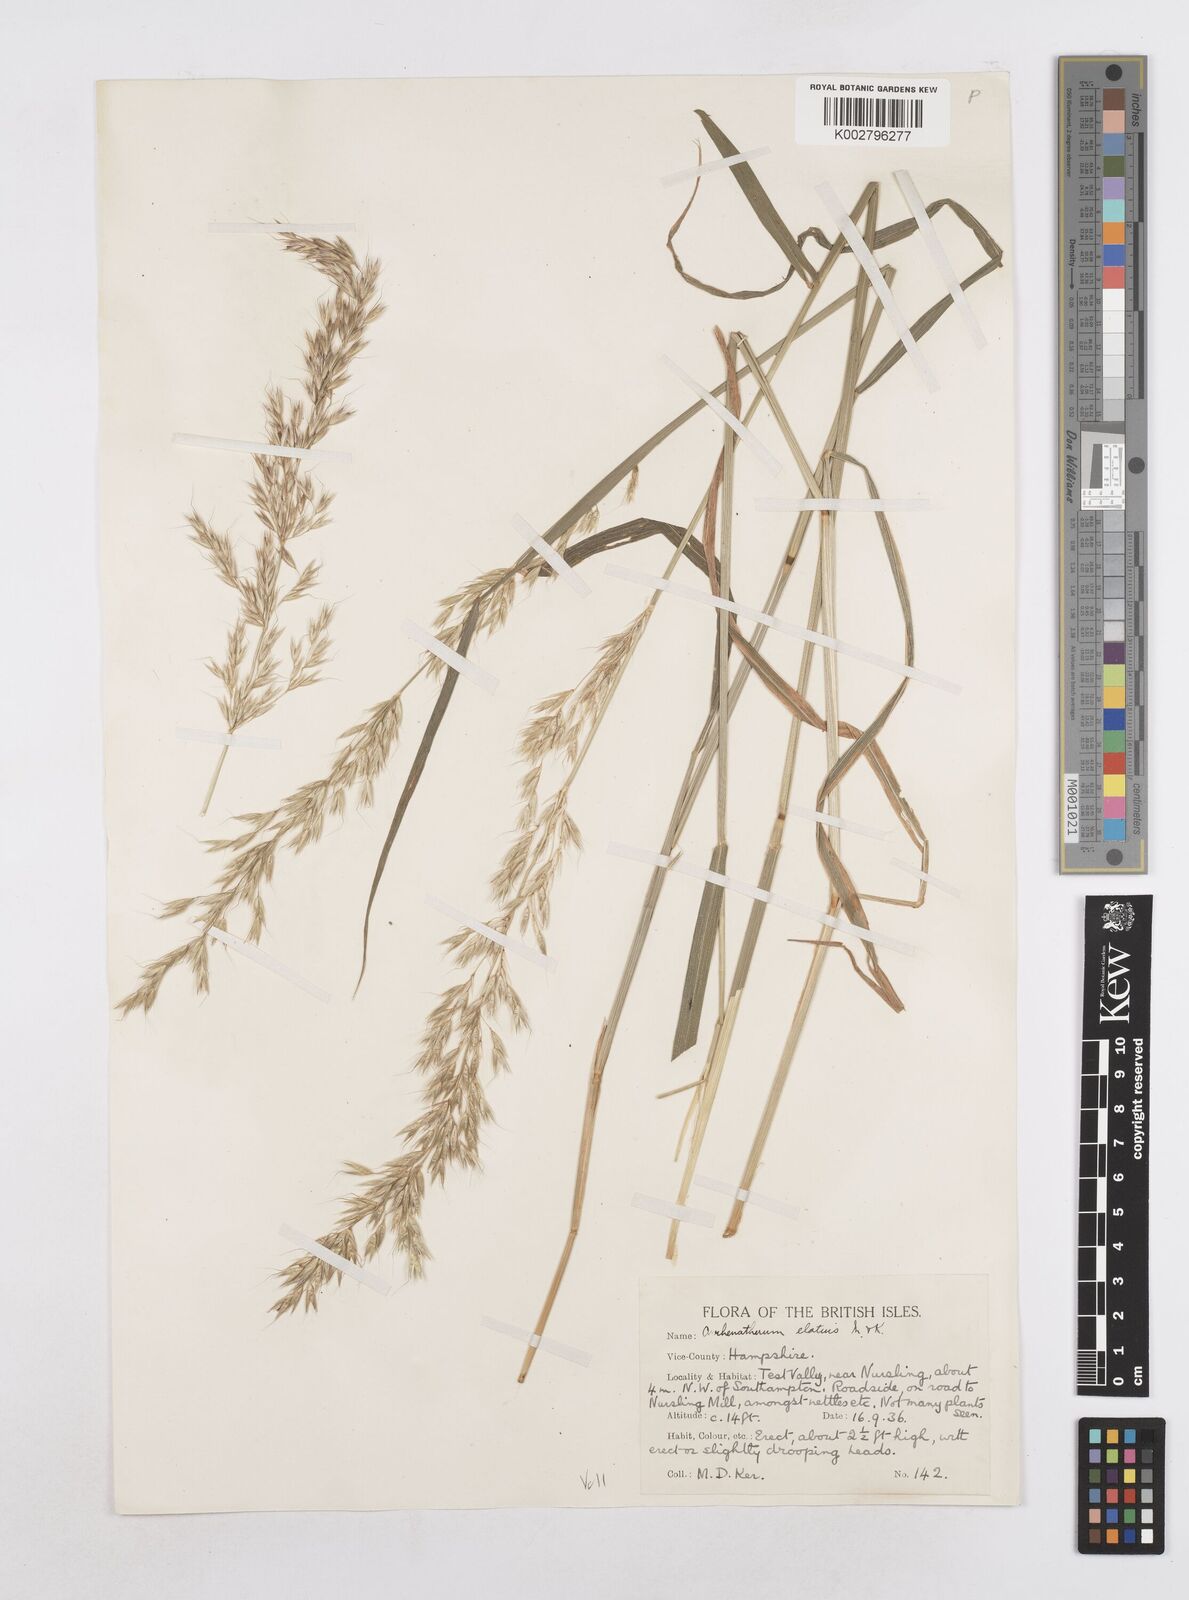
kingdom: Plantae
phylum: Tracheophyta
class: Liliopsida
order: Poales
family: Poaceae
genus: Arrhenatherum
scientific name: Arrhenatherum elatius
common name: Tall oatgrass
